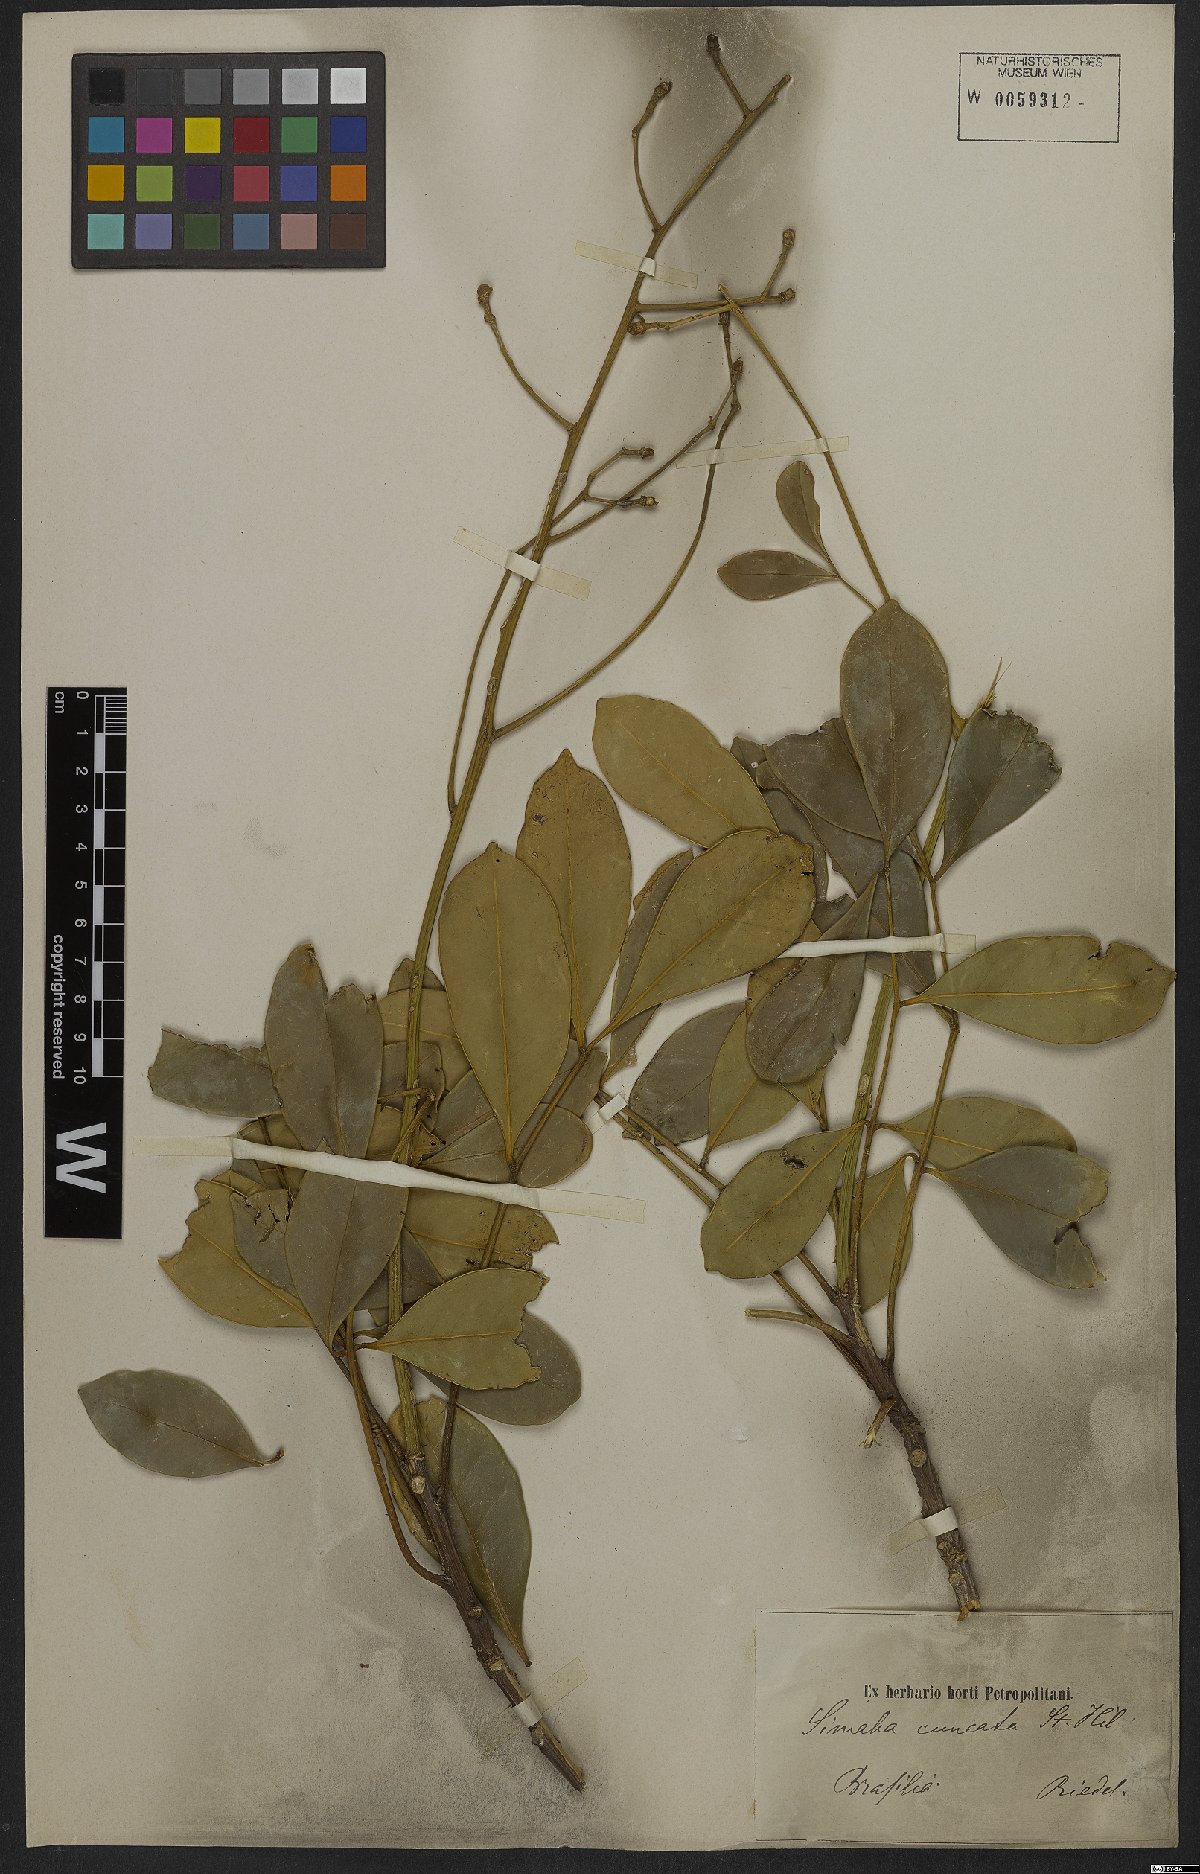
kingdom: Plantae
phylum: Tracheophyta
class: Magnoliopsida
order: Sapindales
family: Simaroubaceae
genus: Homalolepis
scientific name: Homalolepis cuneata
